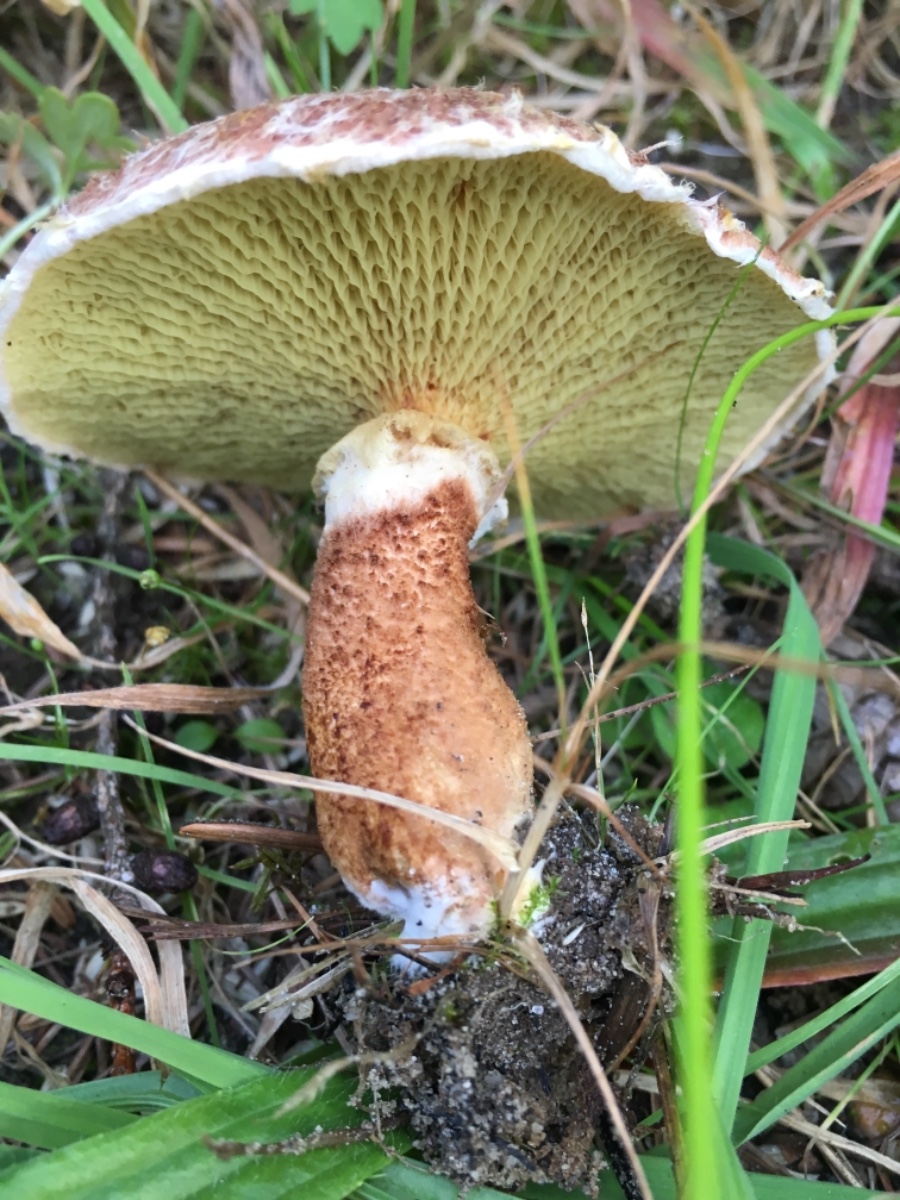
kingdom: Fungi
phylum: Basidiomycota
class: Agaricomycetes
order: Boletales
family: Suillaceae
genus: Suillus
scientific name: Suillus cavipes
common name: hulstokket slimrørhat
